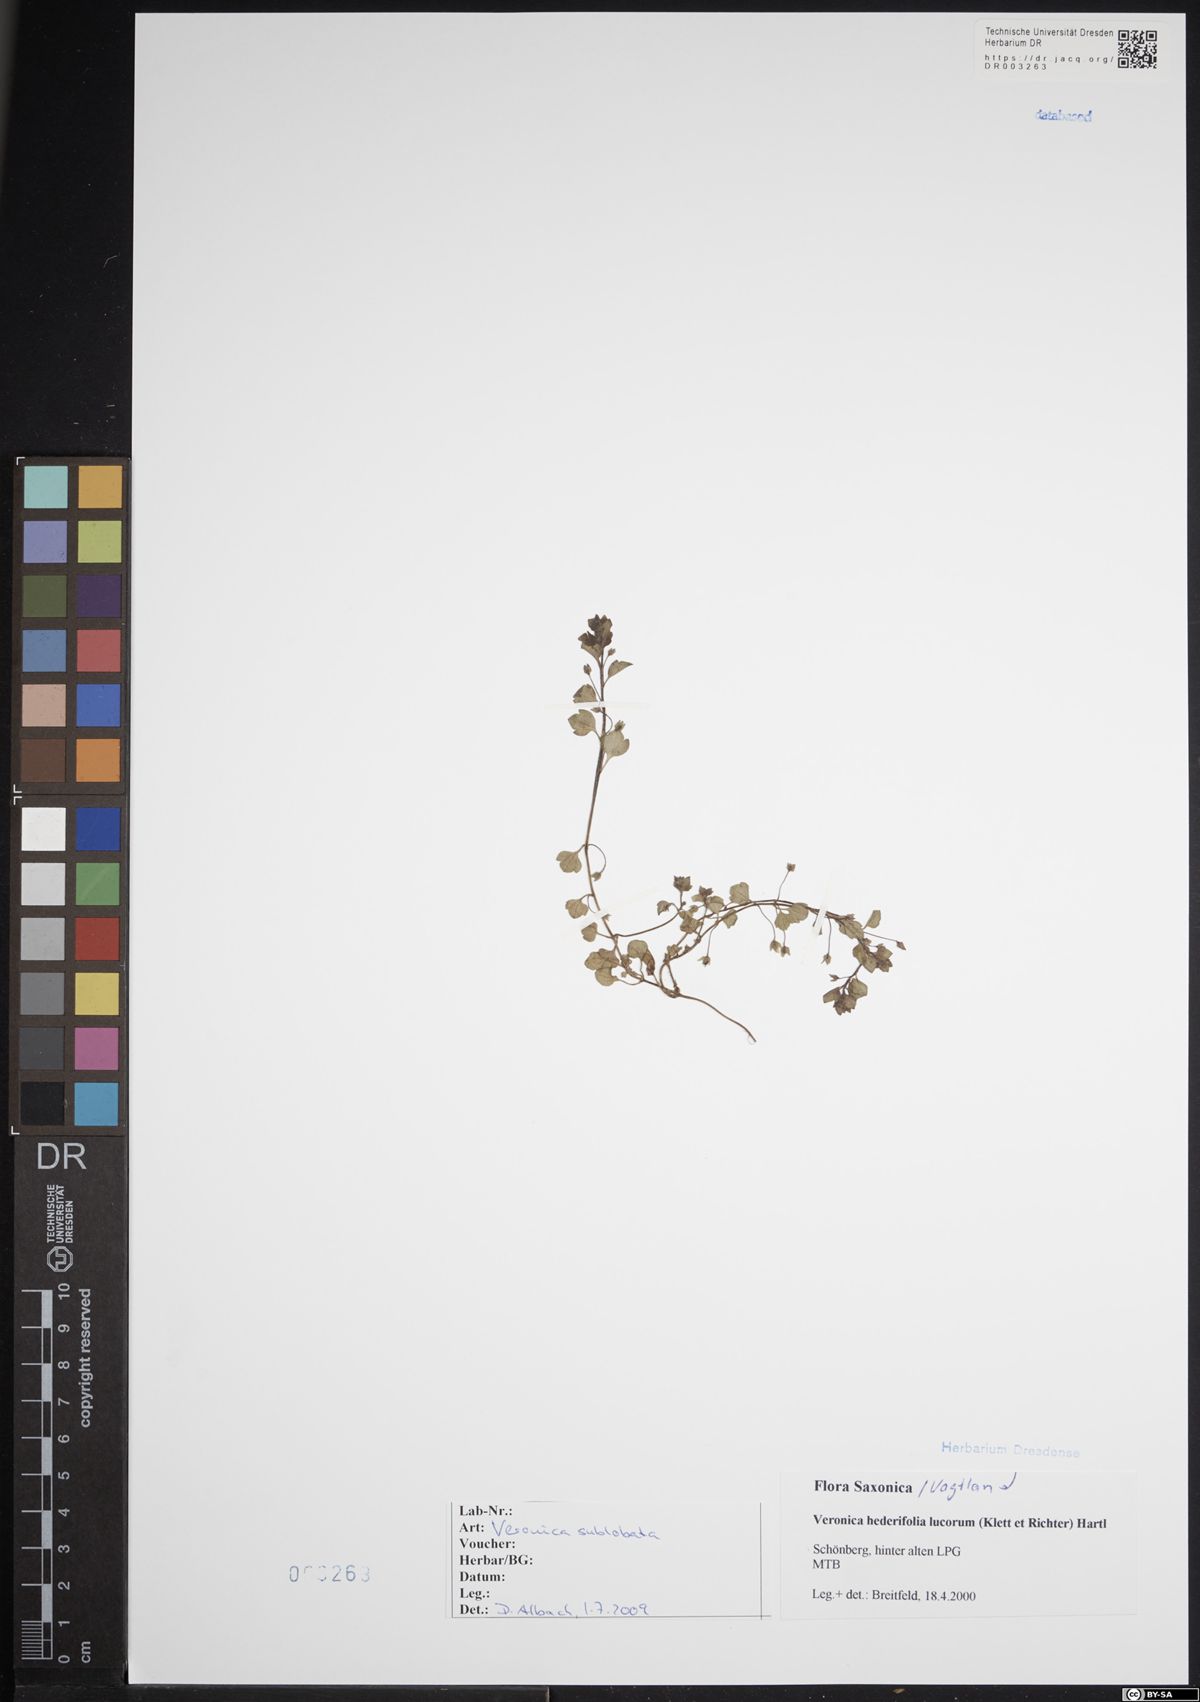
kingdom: Plantae
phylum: Tracheophyta
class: Magnoliopsida
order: Lamiales
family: Plantaginaceae
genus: Veronica
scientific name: Veronica sublobata
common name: False ivy-leaved speedwell
